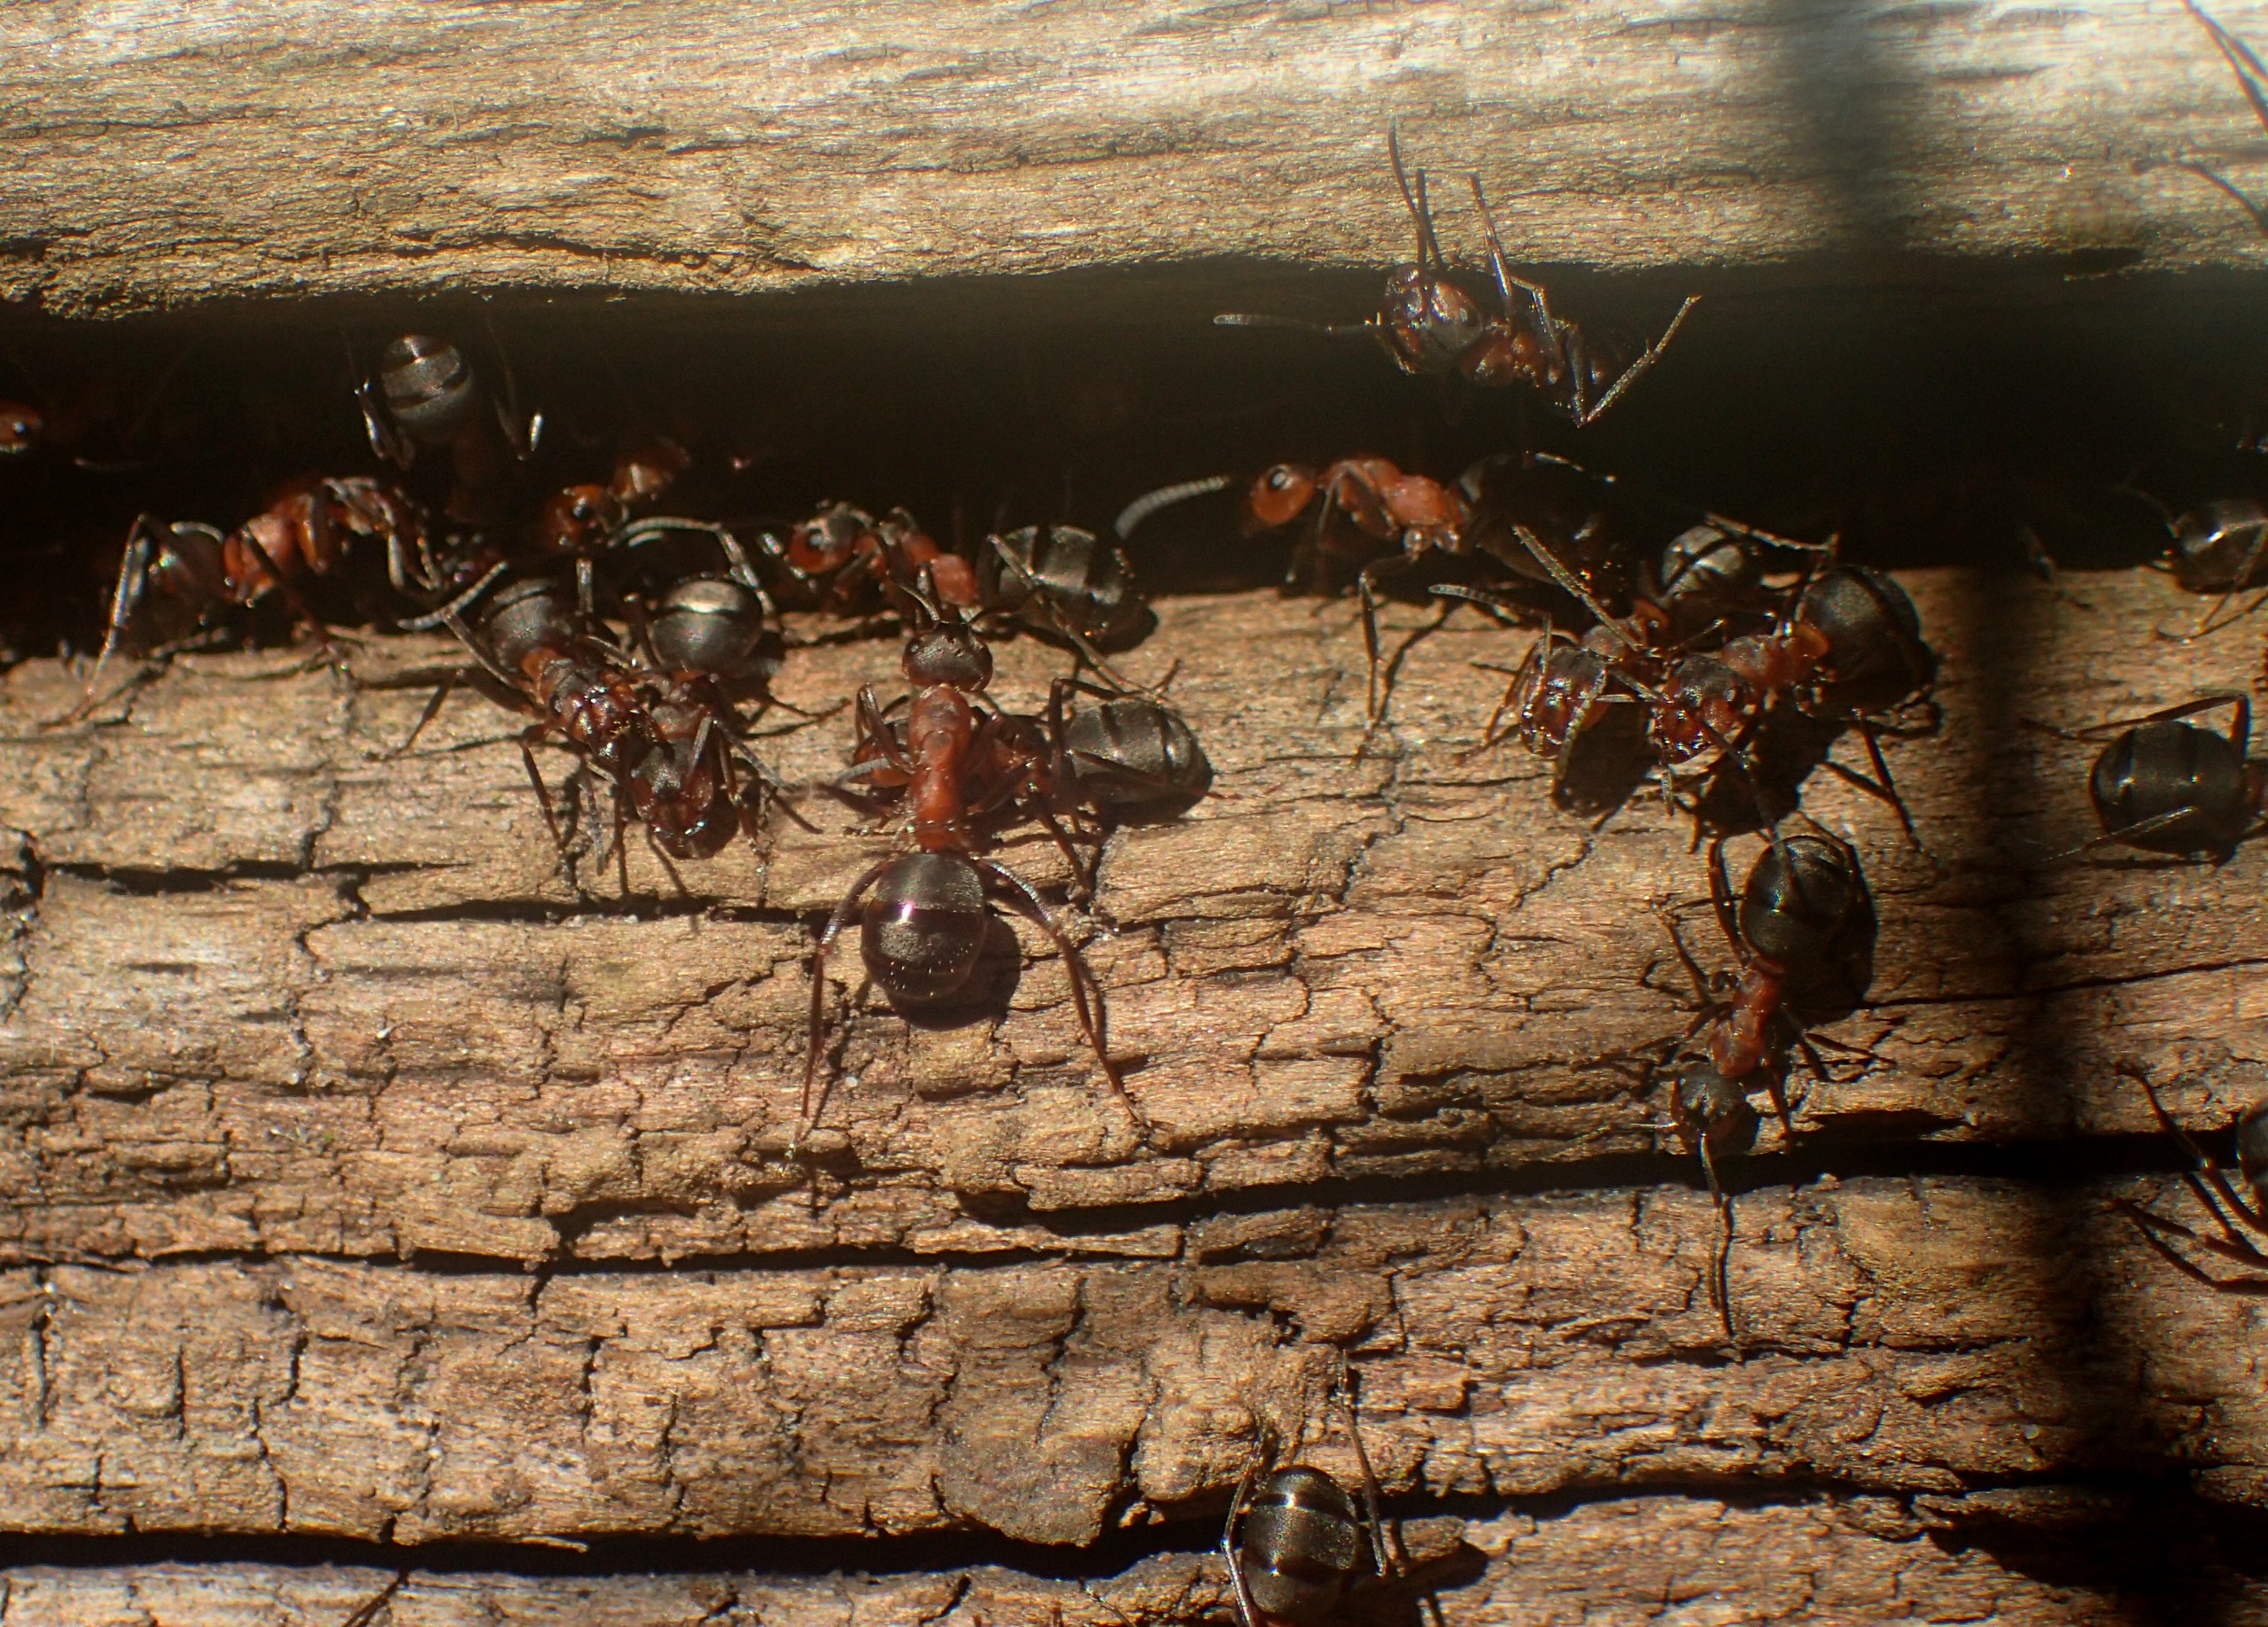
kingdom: Animalia
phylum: Arthropoda
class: Insecta
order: Hymenoptera
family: Formicidae
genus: Formica
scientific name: Formica
